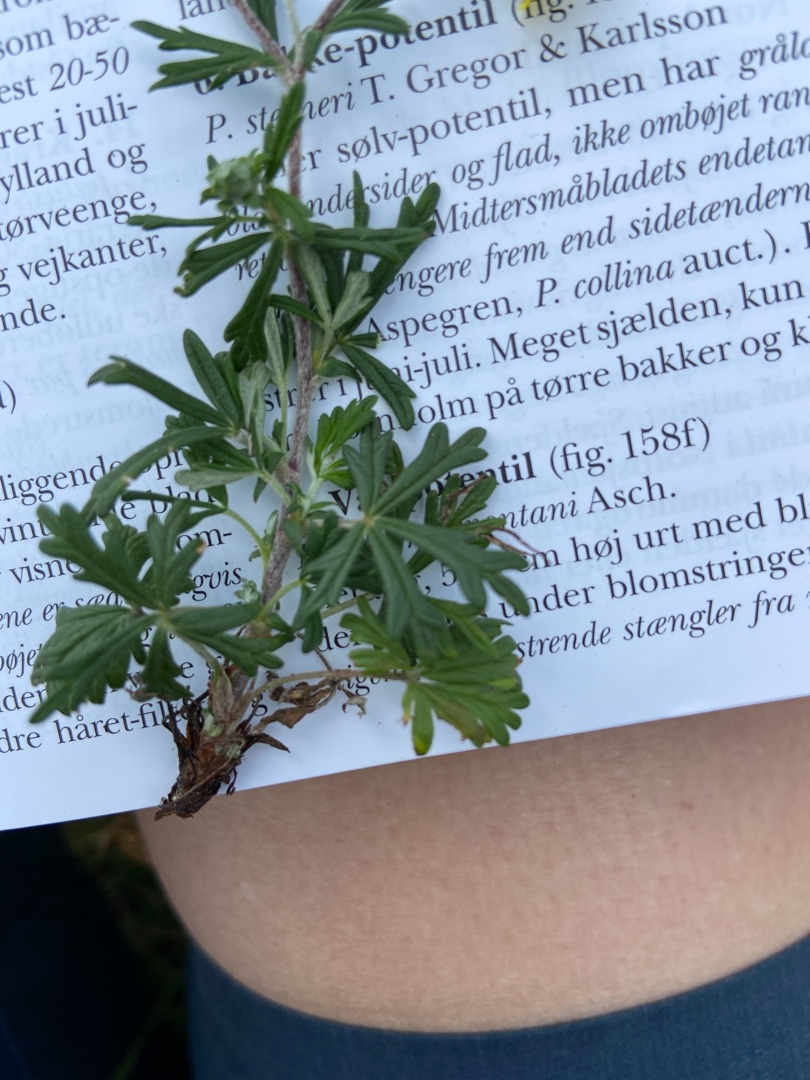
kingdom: Plantae
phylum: Tracheophyta
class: Magnoliopsida
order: Rosales
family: Rosaceae
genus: Potentilla
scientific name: Potentilla argentea
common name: Sølv-potentil
